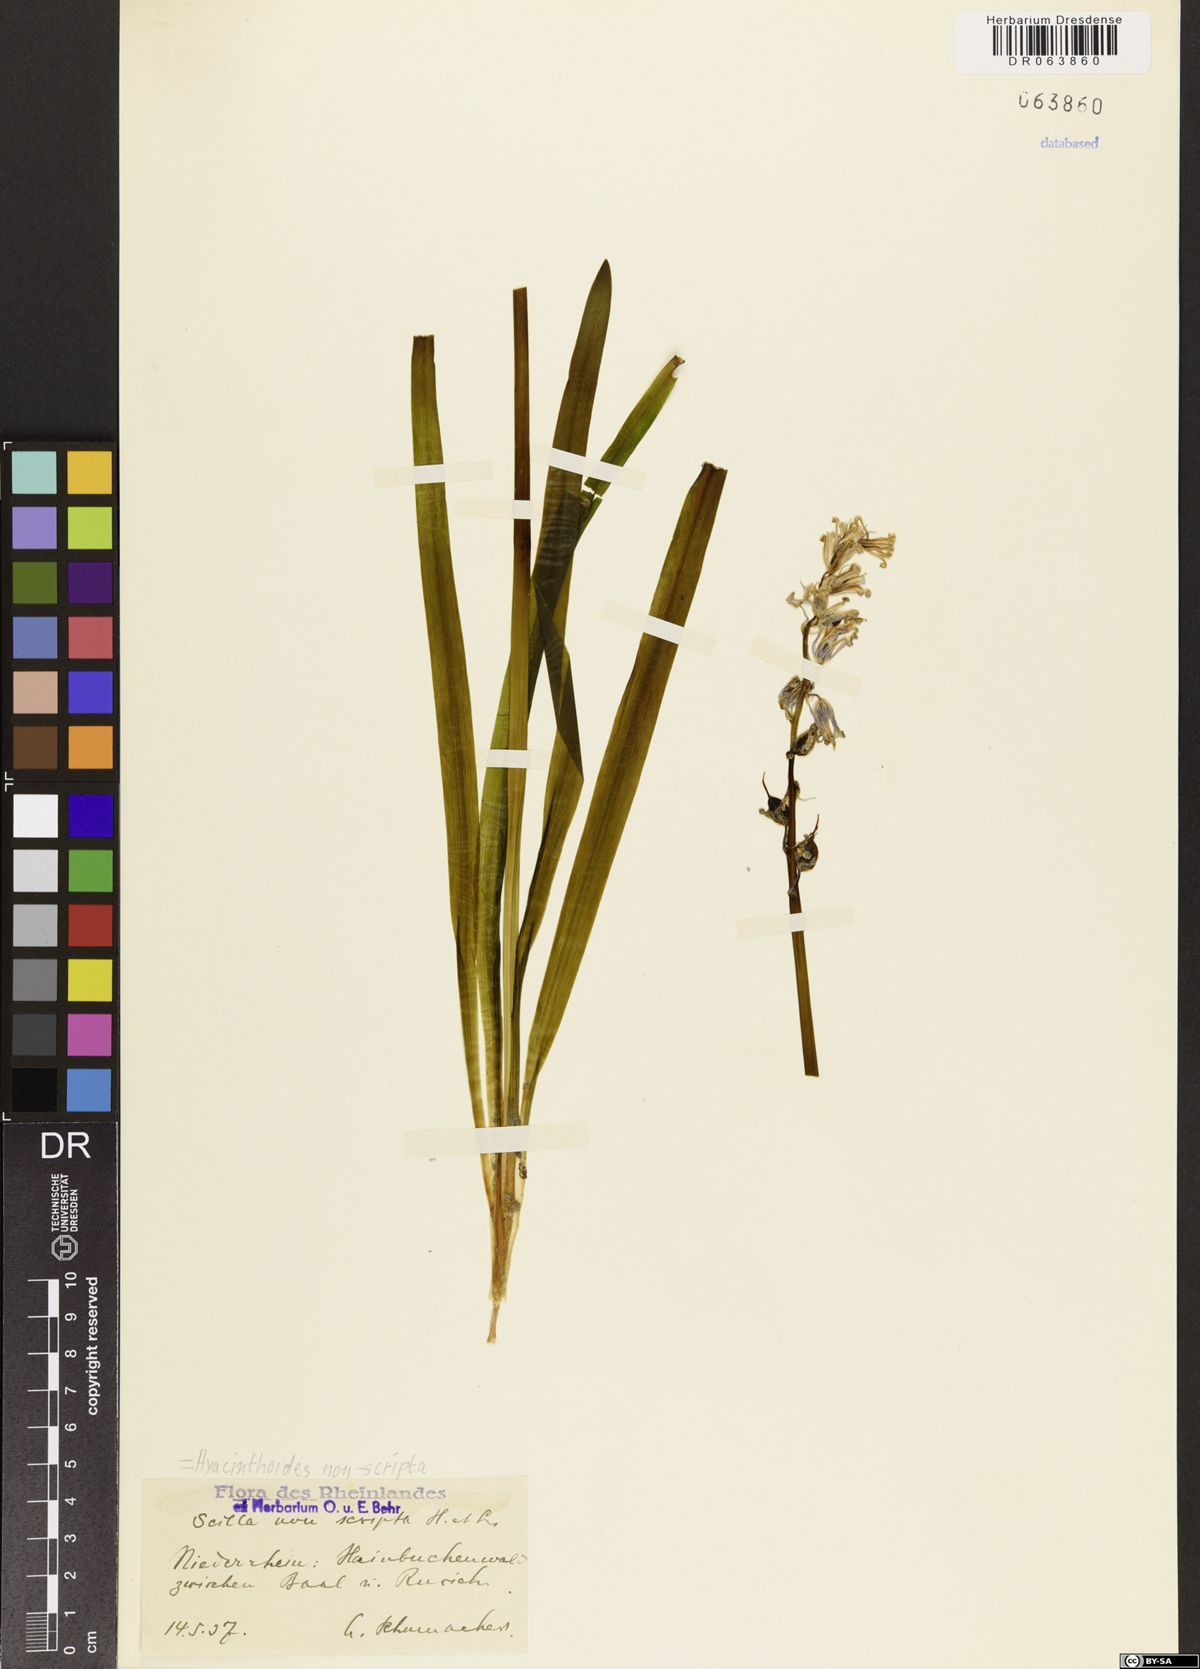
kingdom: Plantae
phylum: Tracheophyta
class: Liliopsida
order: Asparagales
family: Asparagaceae
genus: Hyacinthoides
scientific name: Hyacinthoides non-scripta
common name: Bluebell
